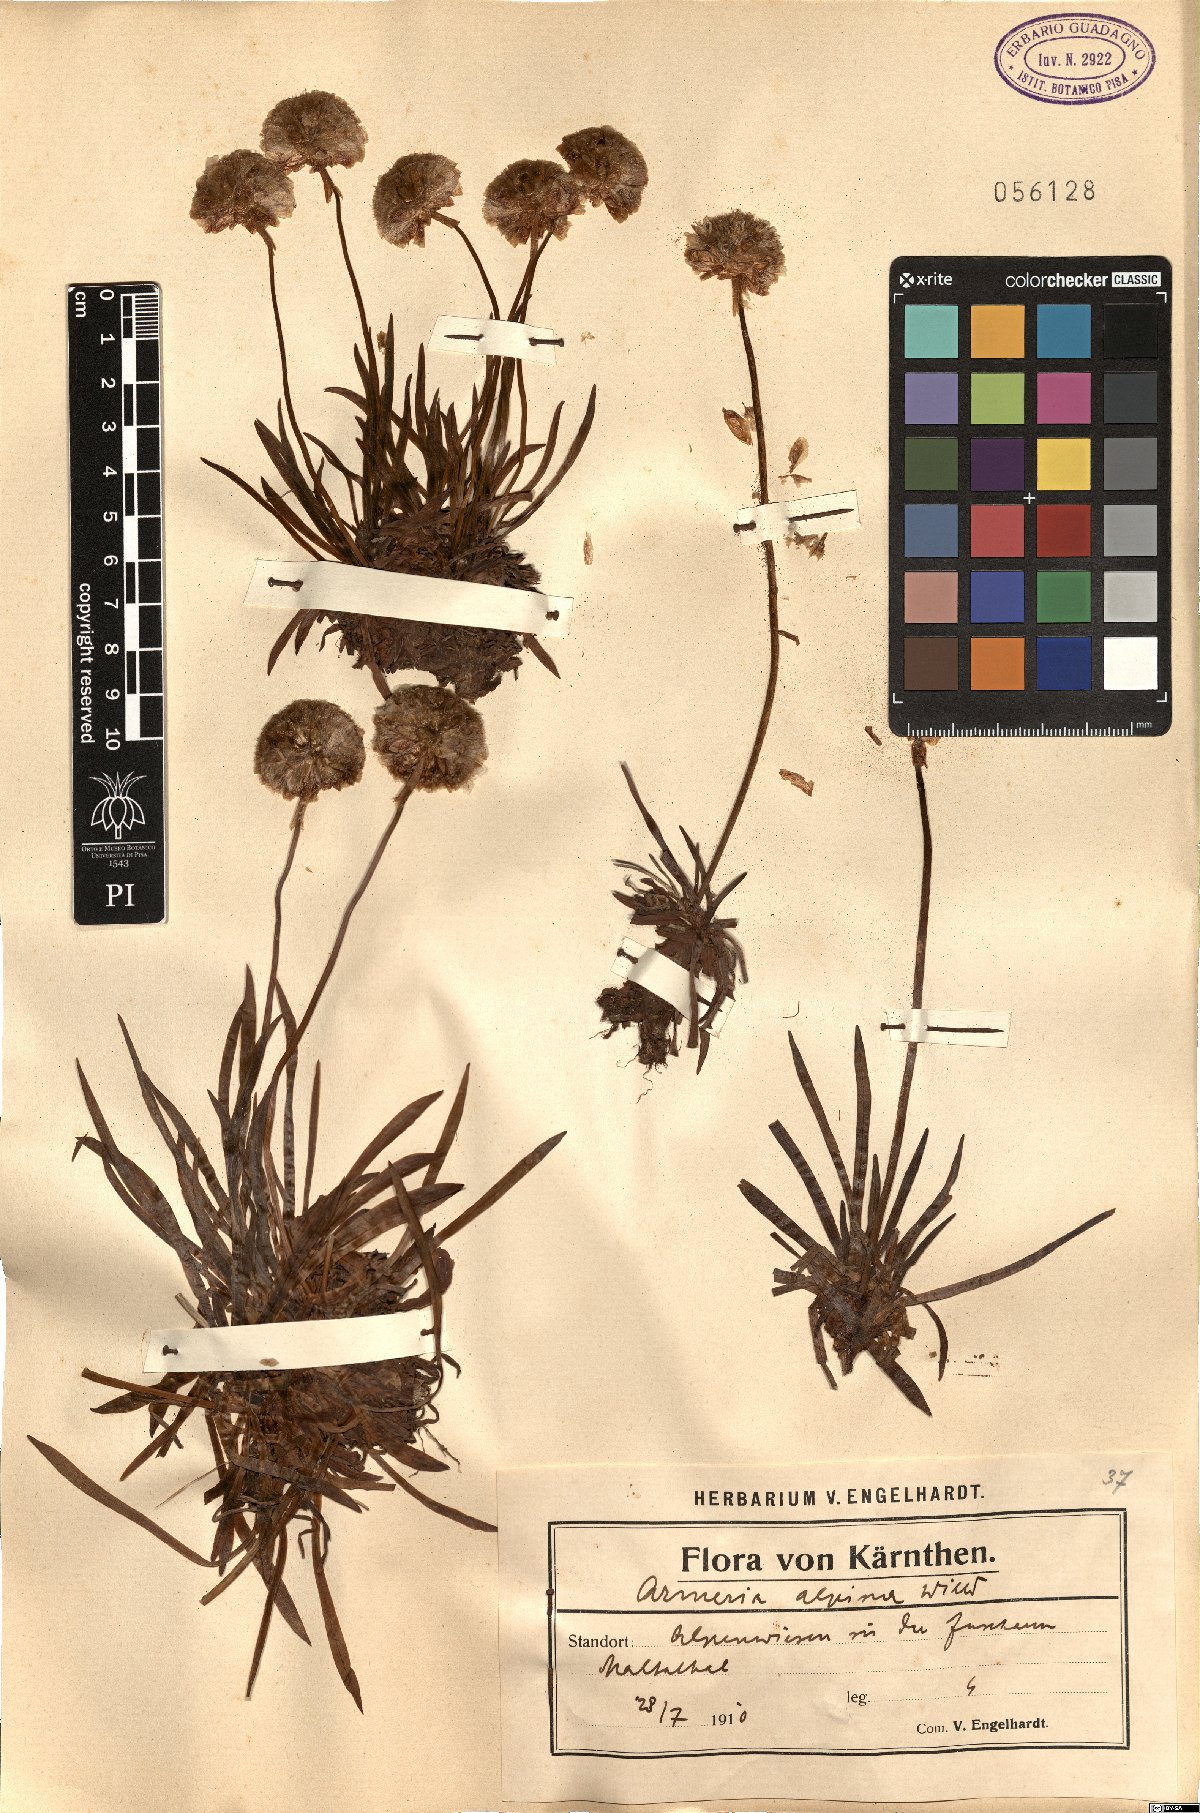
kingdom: Plantae
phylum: Tracheophyta
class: Magnoliopsida
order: Caryophyllales
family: Plumbaginaceae
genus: Armeria
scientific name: Armeria alpina
